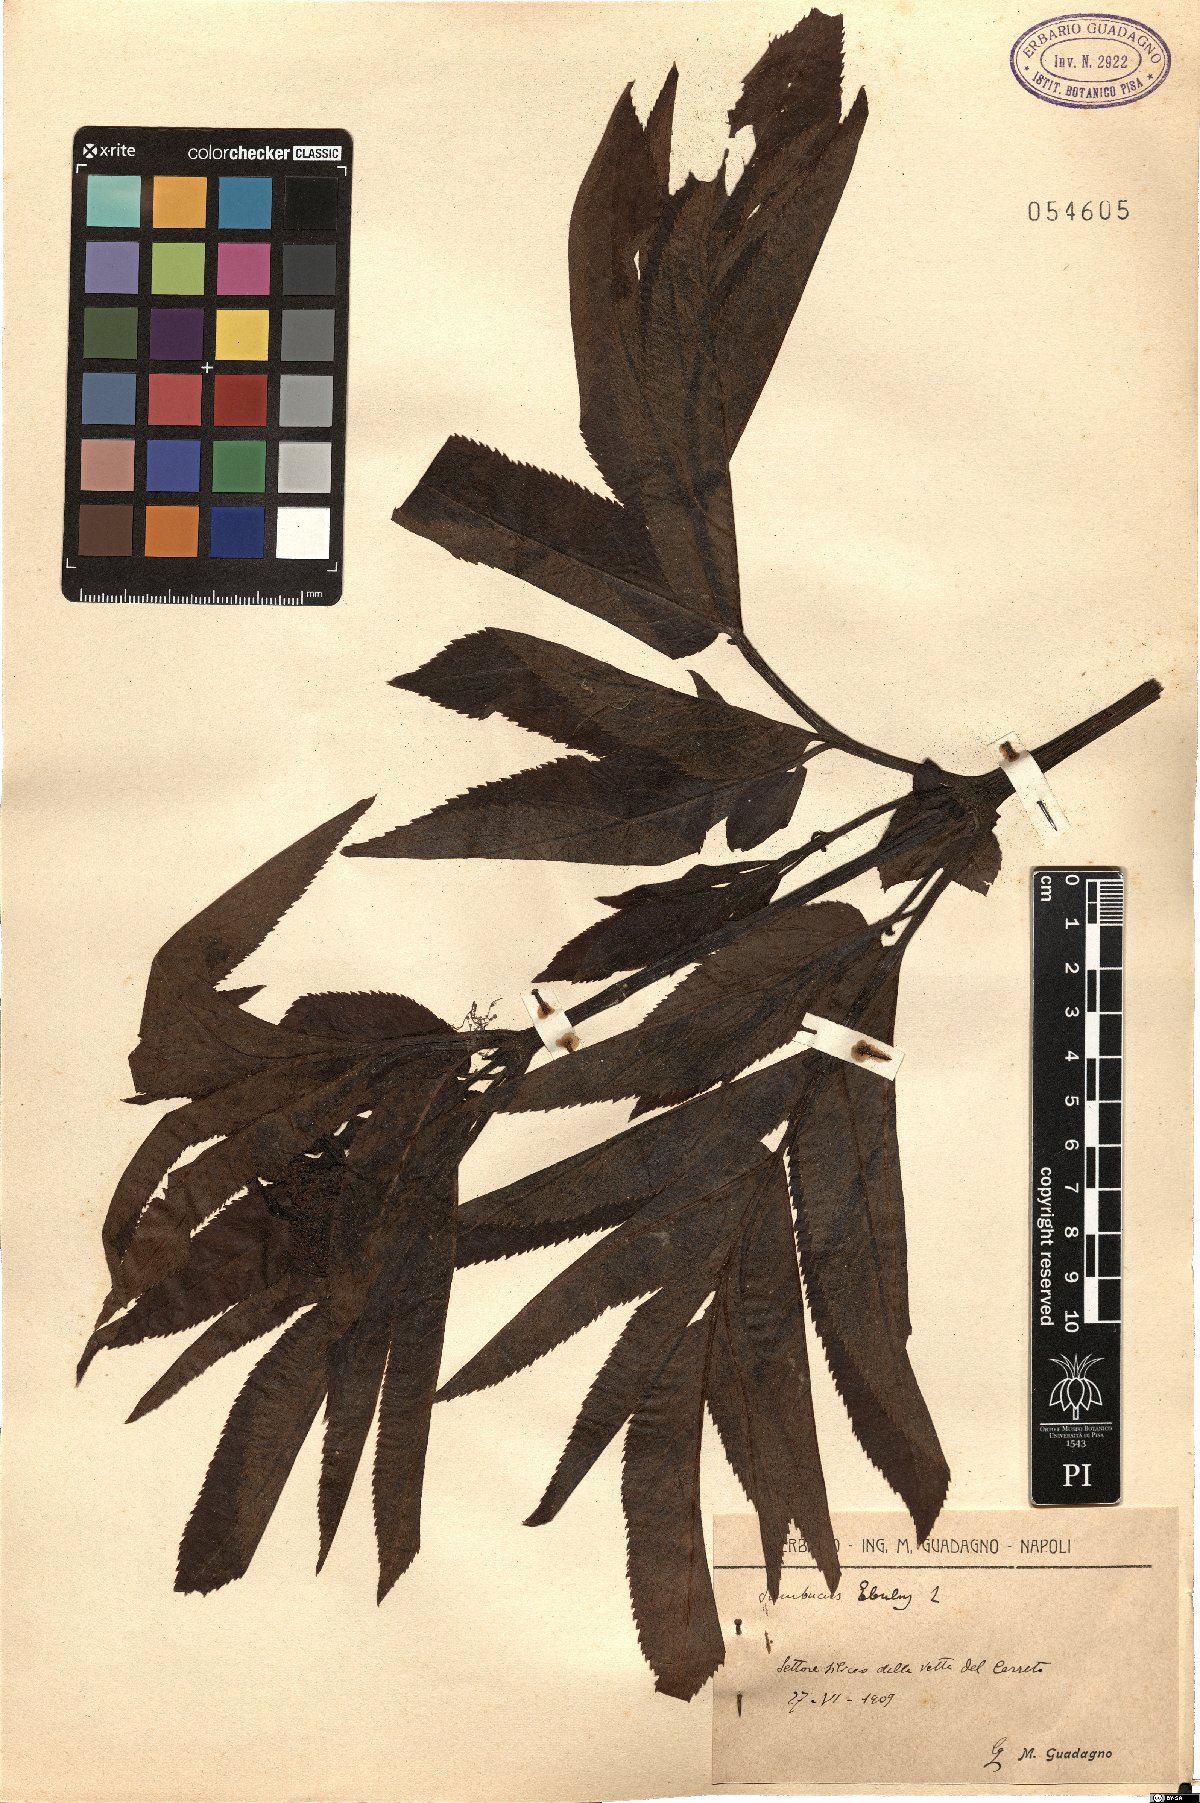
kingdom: Plantae
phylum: Tracheophyta
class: Magnoliopsida
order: Dipsacales
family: Viburnaceae
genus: Sambucus
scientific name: Sambucus ebulus
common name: Dwarf elder
